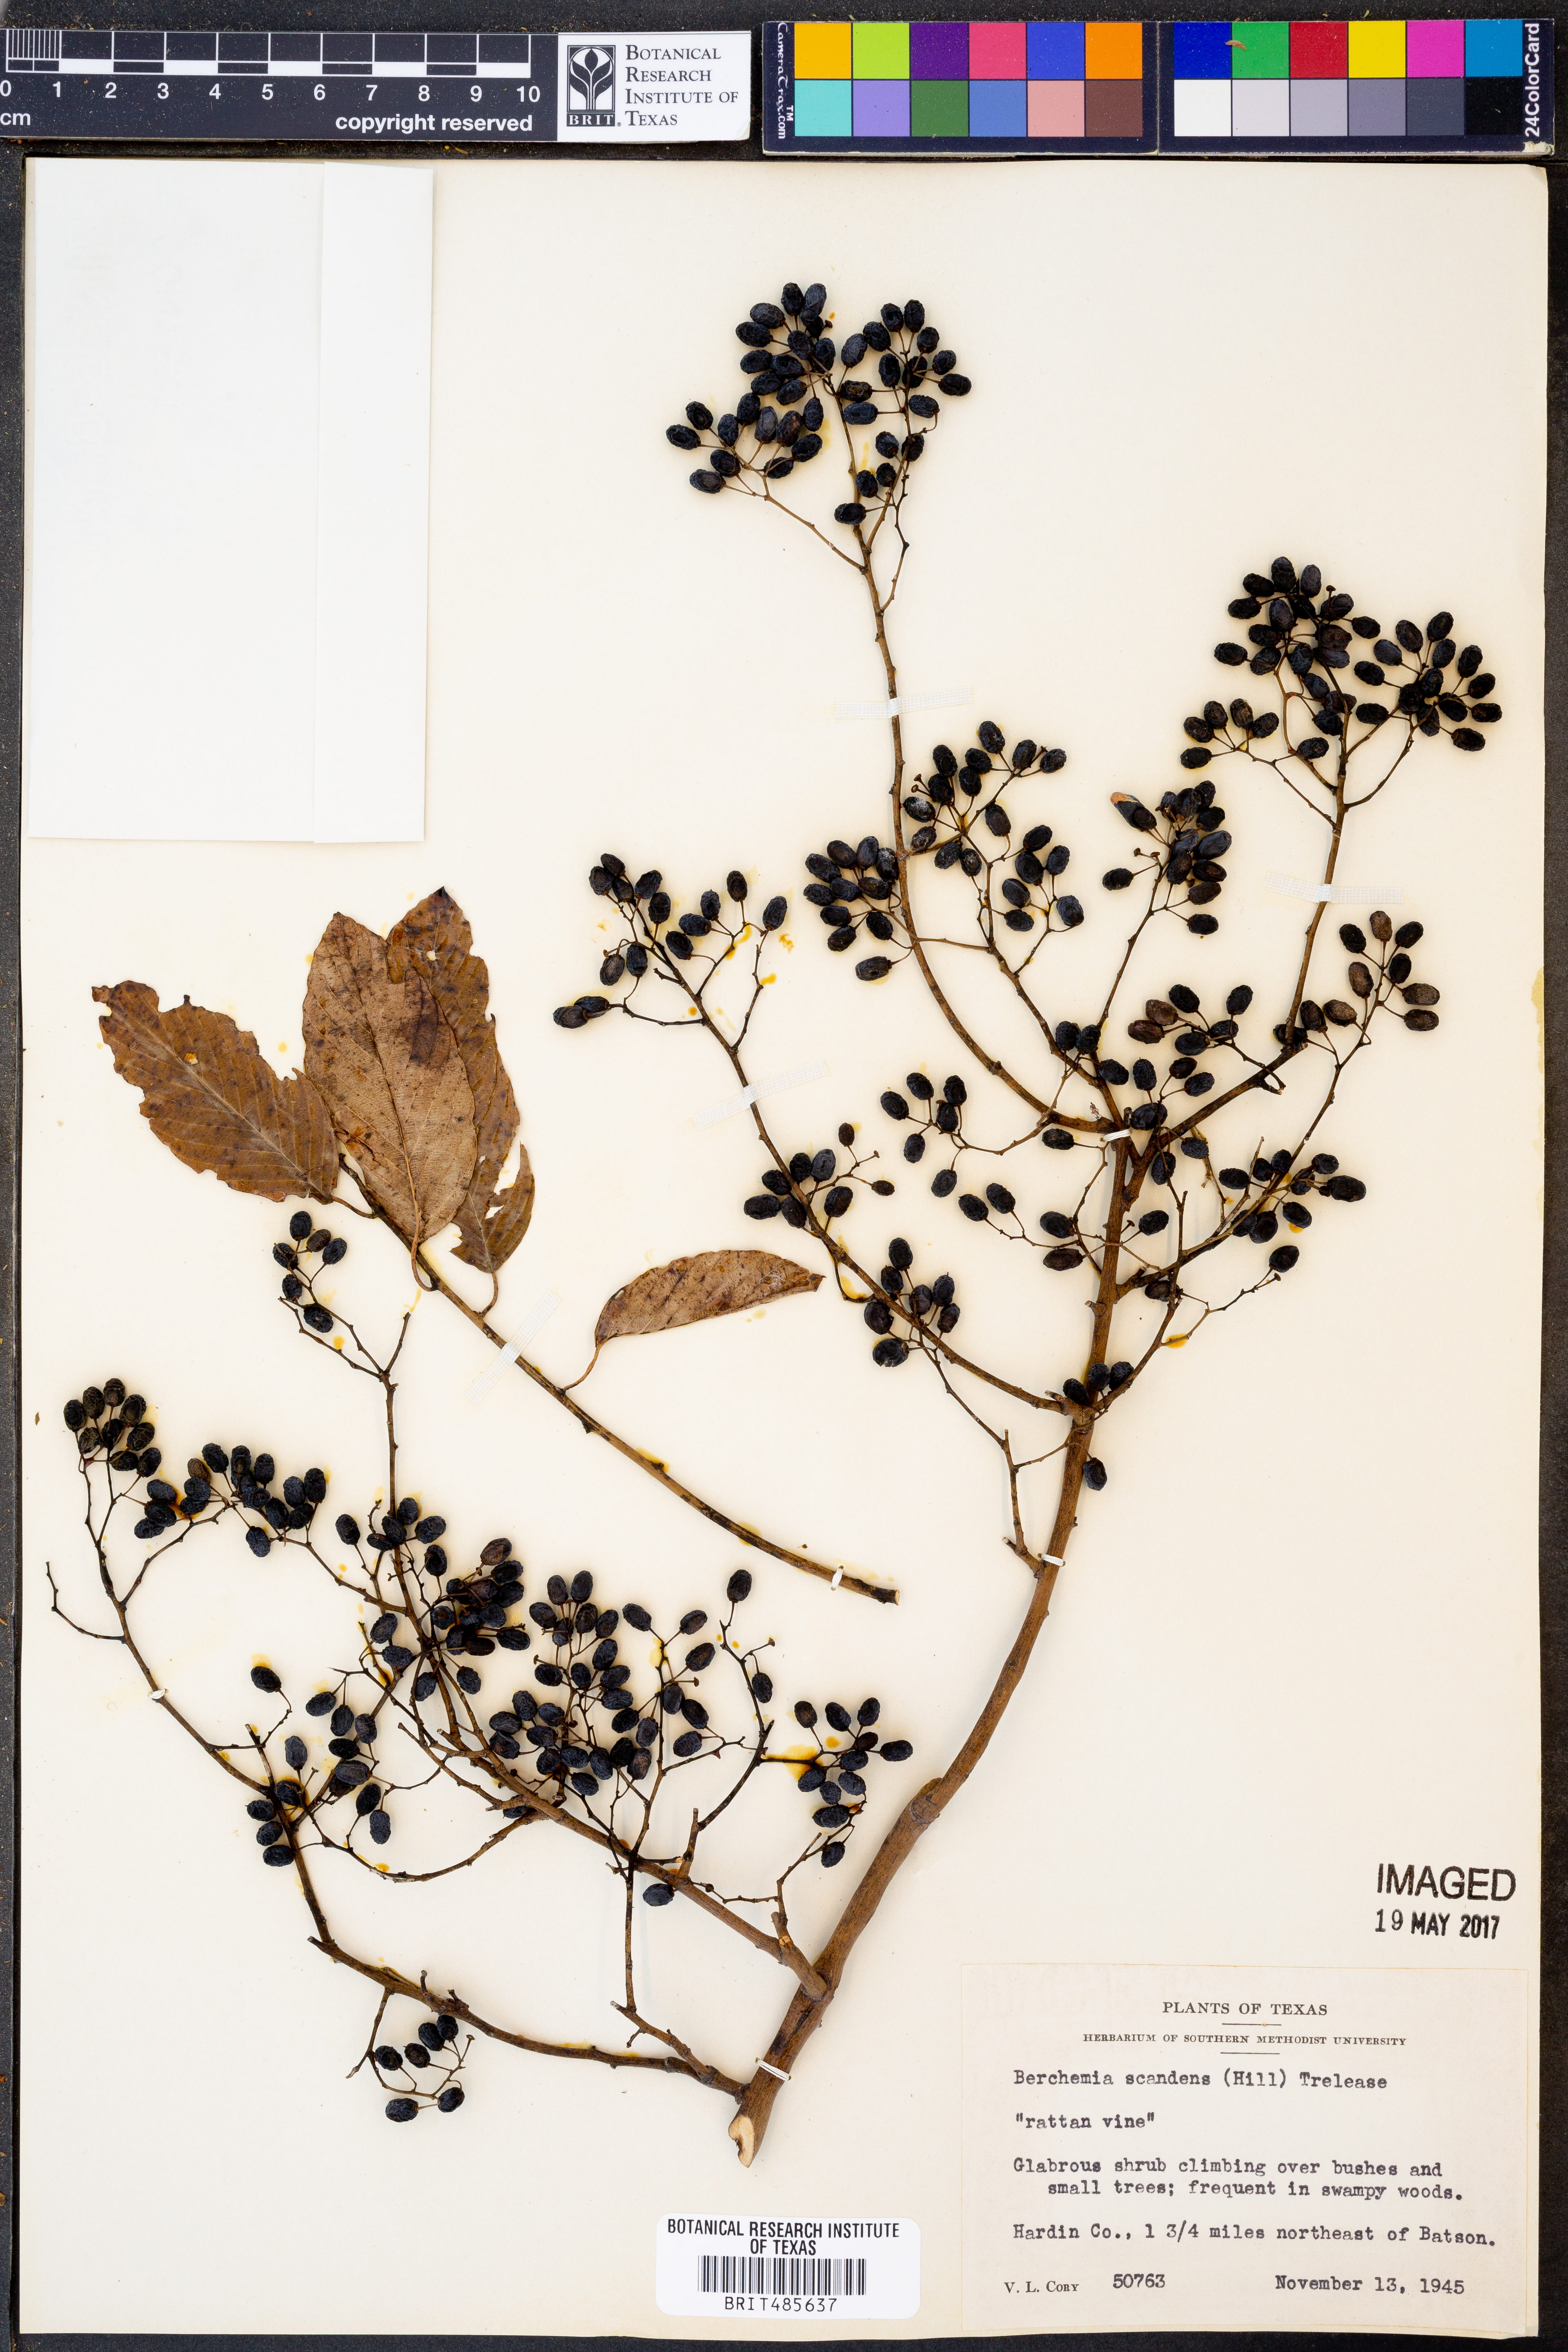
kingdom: Plantae
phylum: Tracheophyta
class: Magnoliopsida
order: Rosales
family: Rhamnaceae
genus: Berchemia
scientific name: Berchemia scandens
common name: Supplejack
